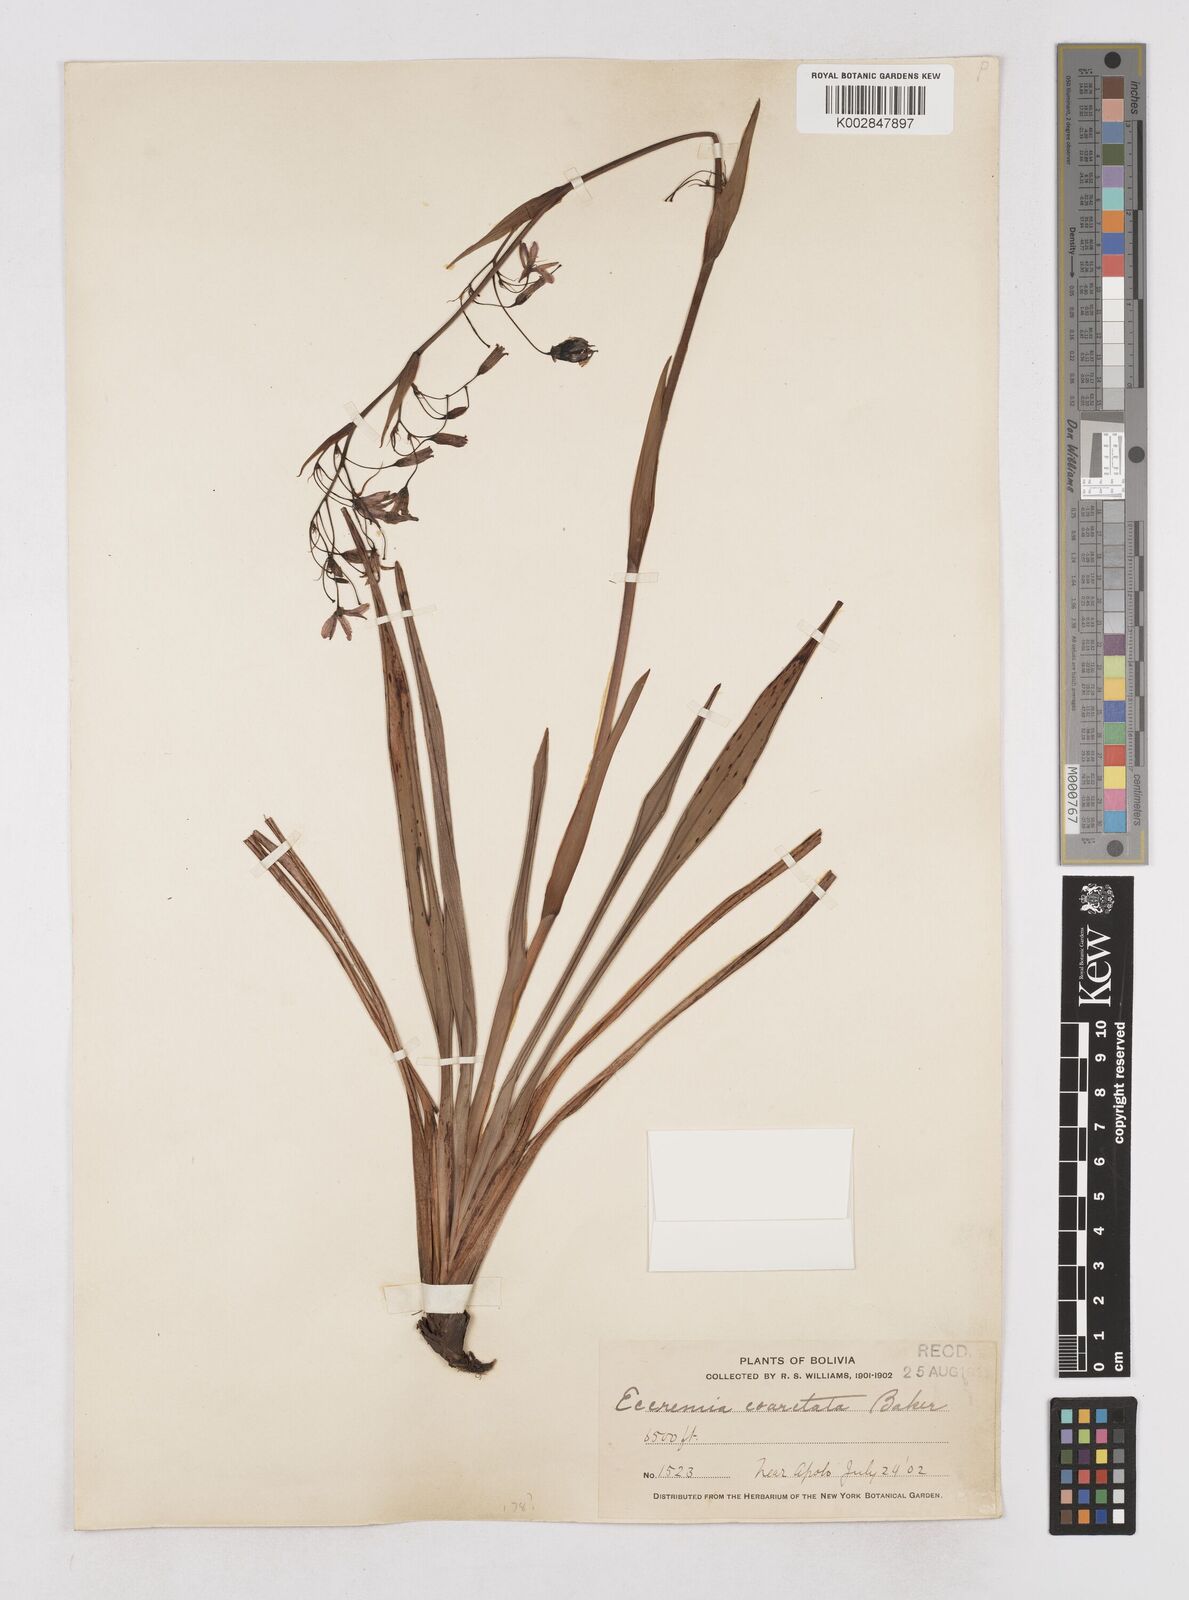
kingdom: Plantae
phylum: Tracheophyta
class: Liliopsida
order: Asparagales
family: Asphodelaceae
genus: Excremis
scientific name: Excremis coarctata
